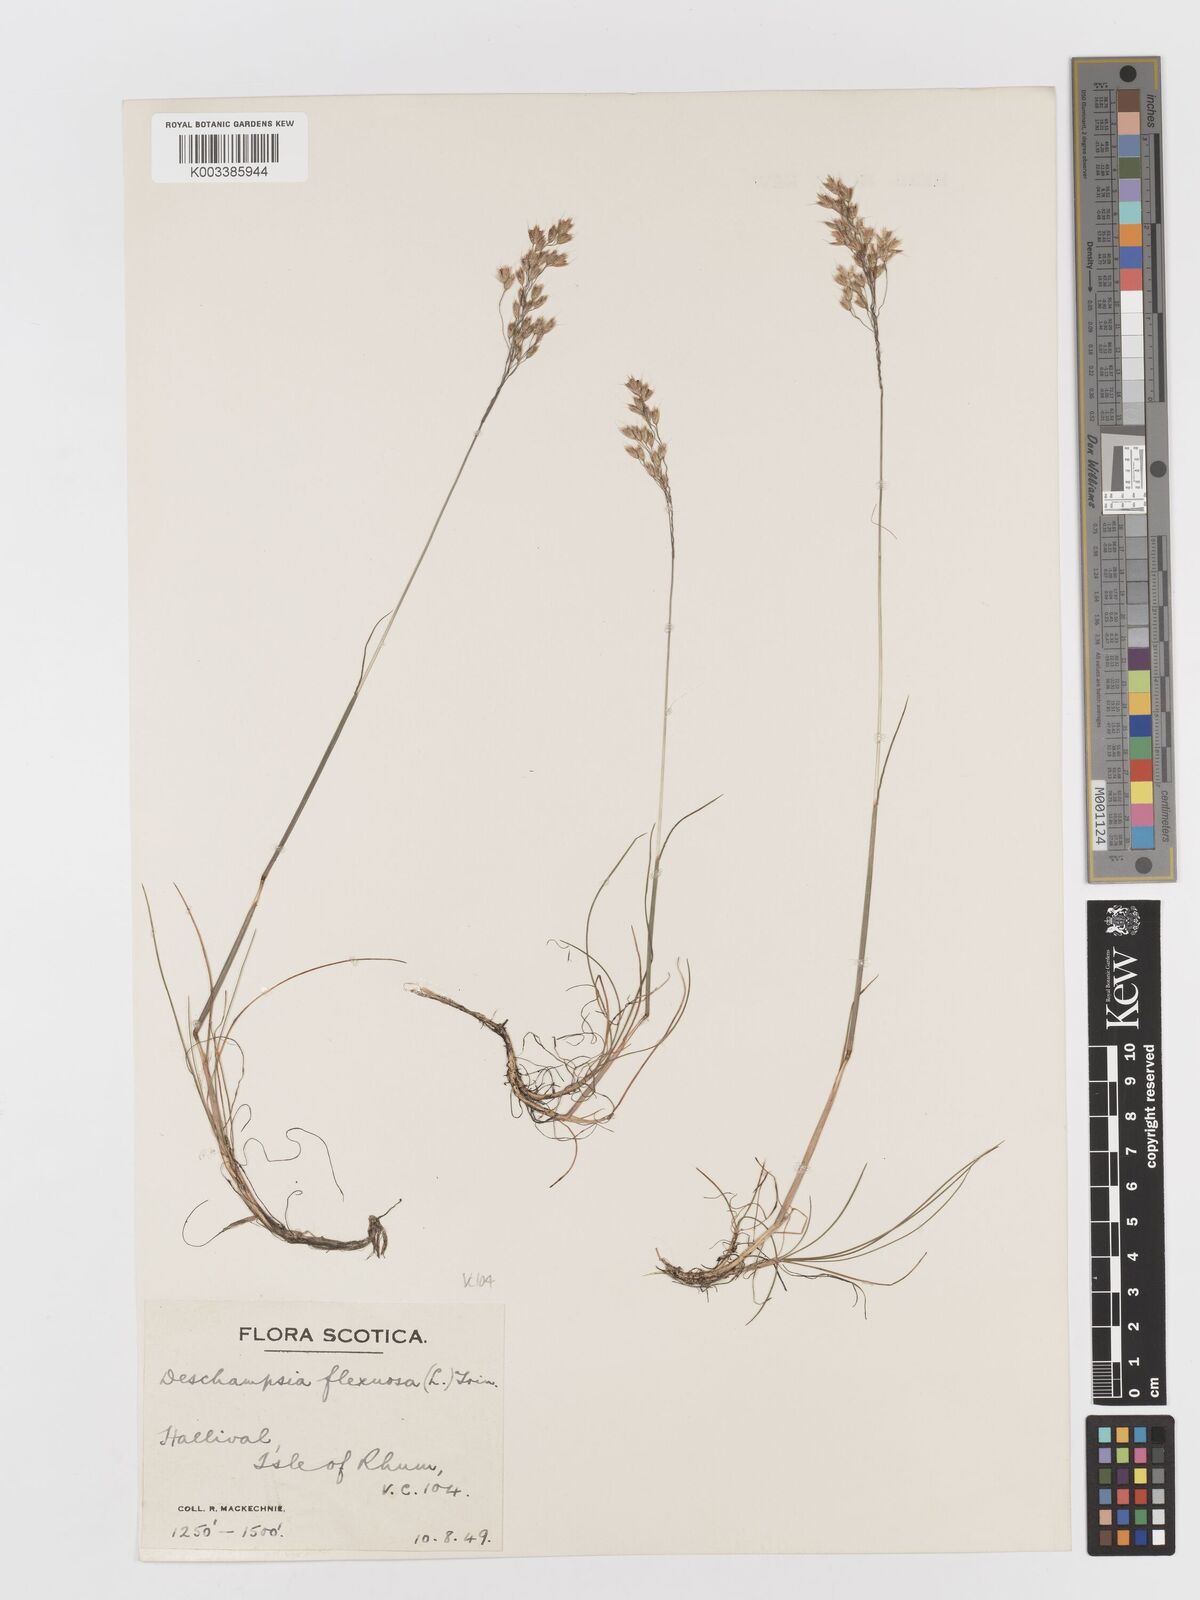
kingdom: Plantae
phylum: Tracheophyta
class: Liliopsida
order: Poales
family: Poaceae
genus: Avenella
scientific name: Avenella flexuosa
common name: Wavy hairgrass
